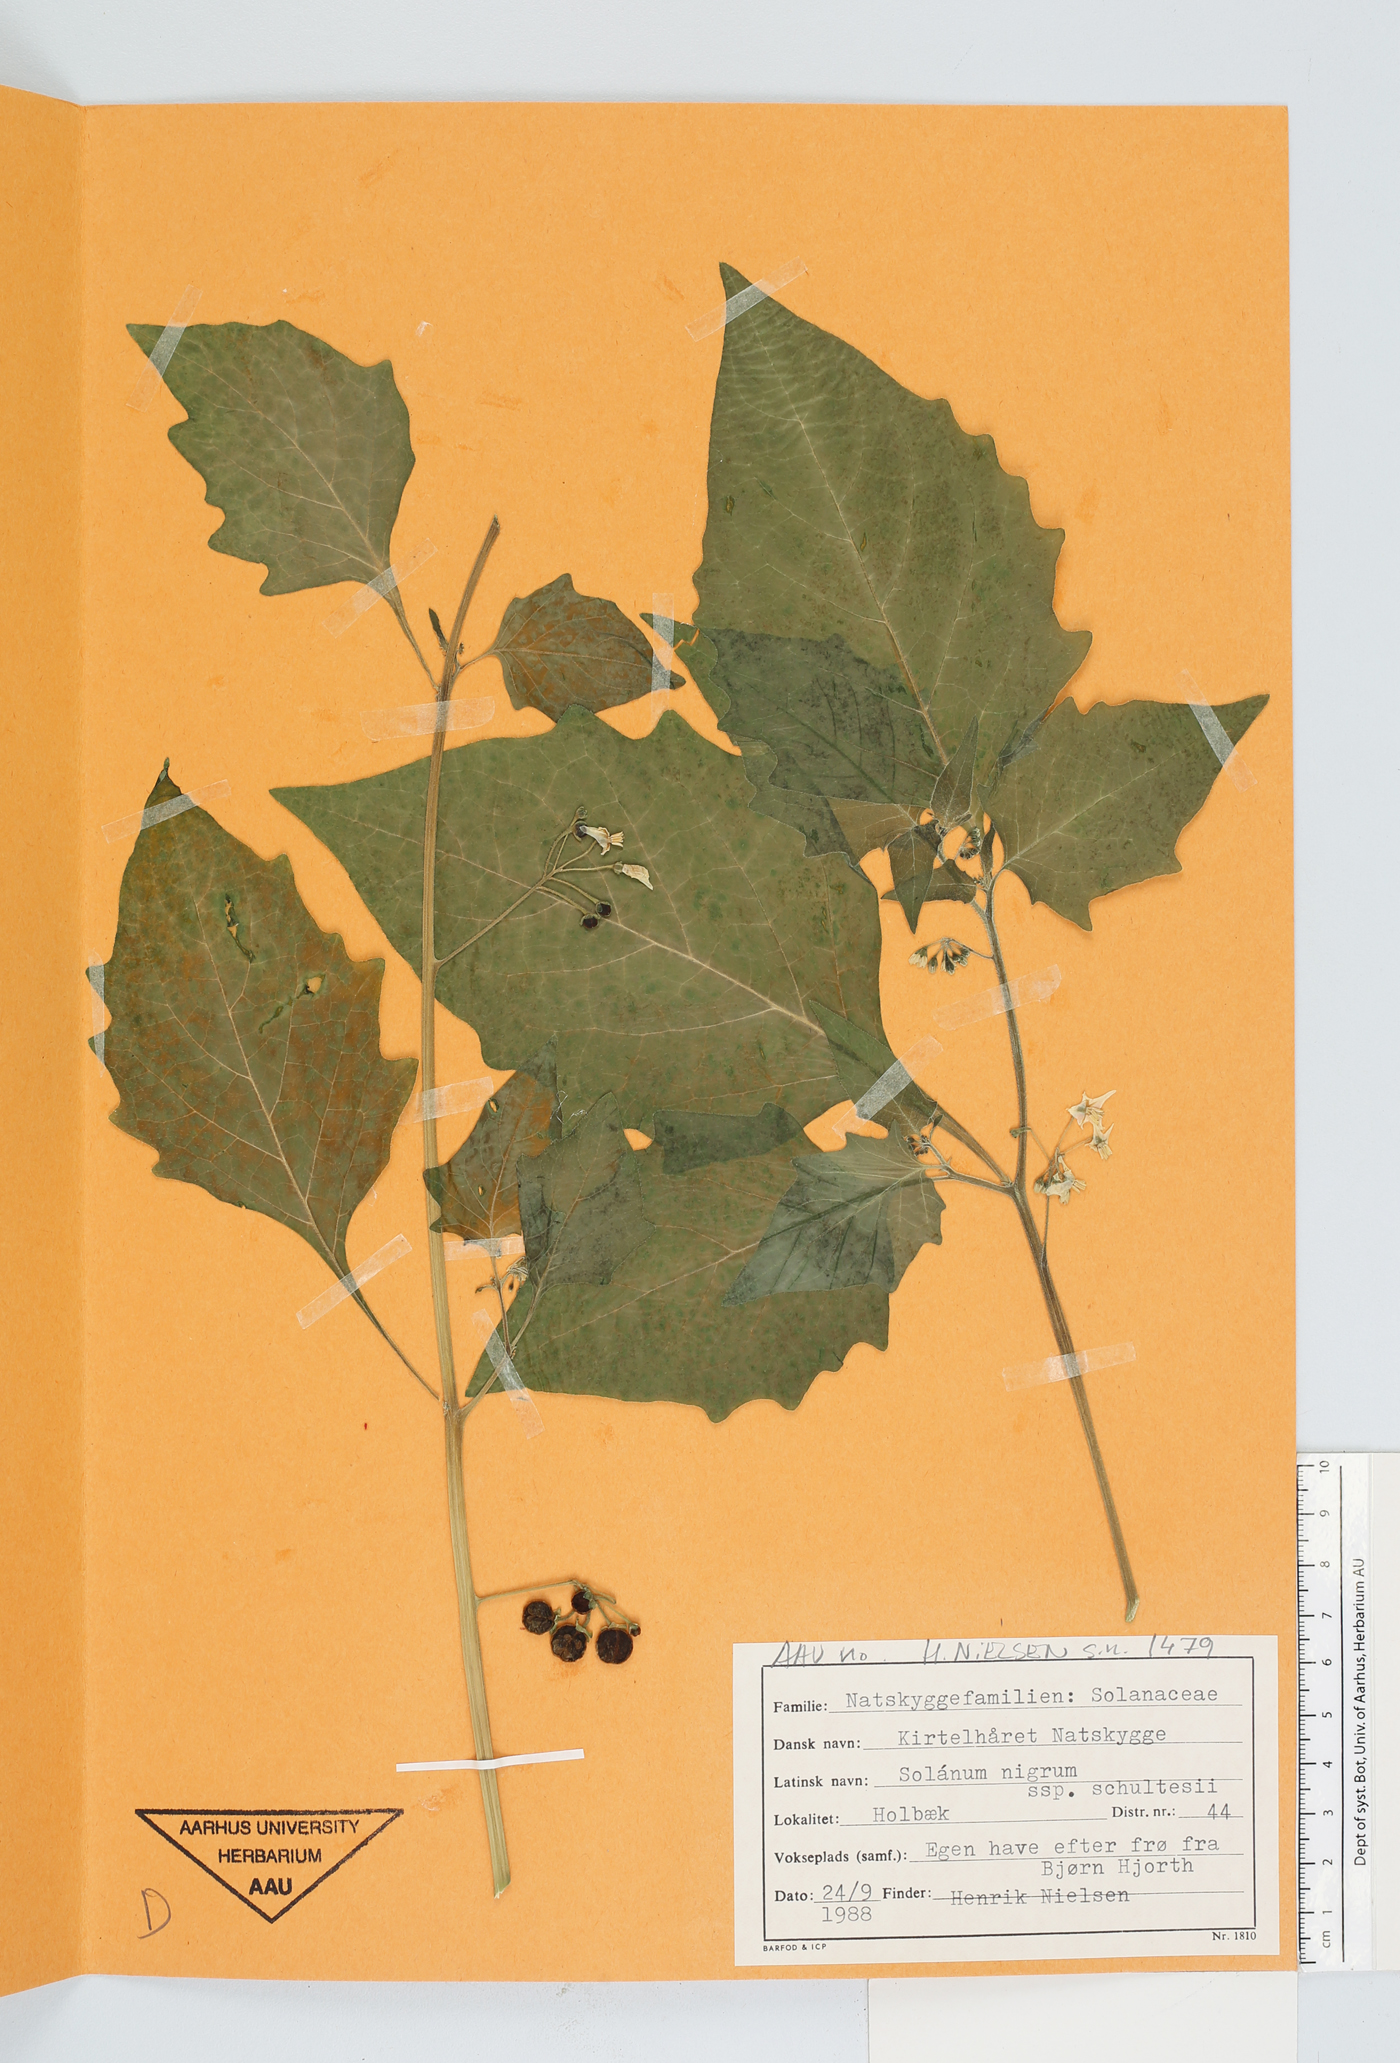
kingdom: Plantae
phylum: Tracheophyta
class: Magnoliopsida
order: Solanales
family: Solanaceae
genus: Solanum
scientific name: Solanum decipiens
